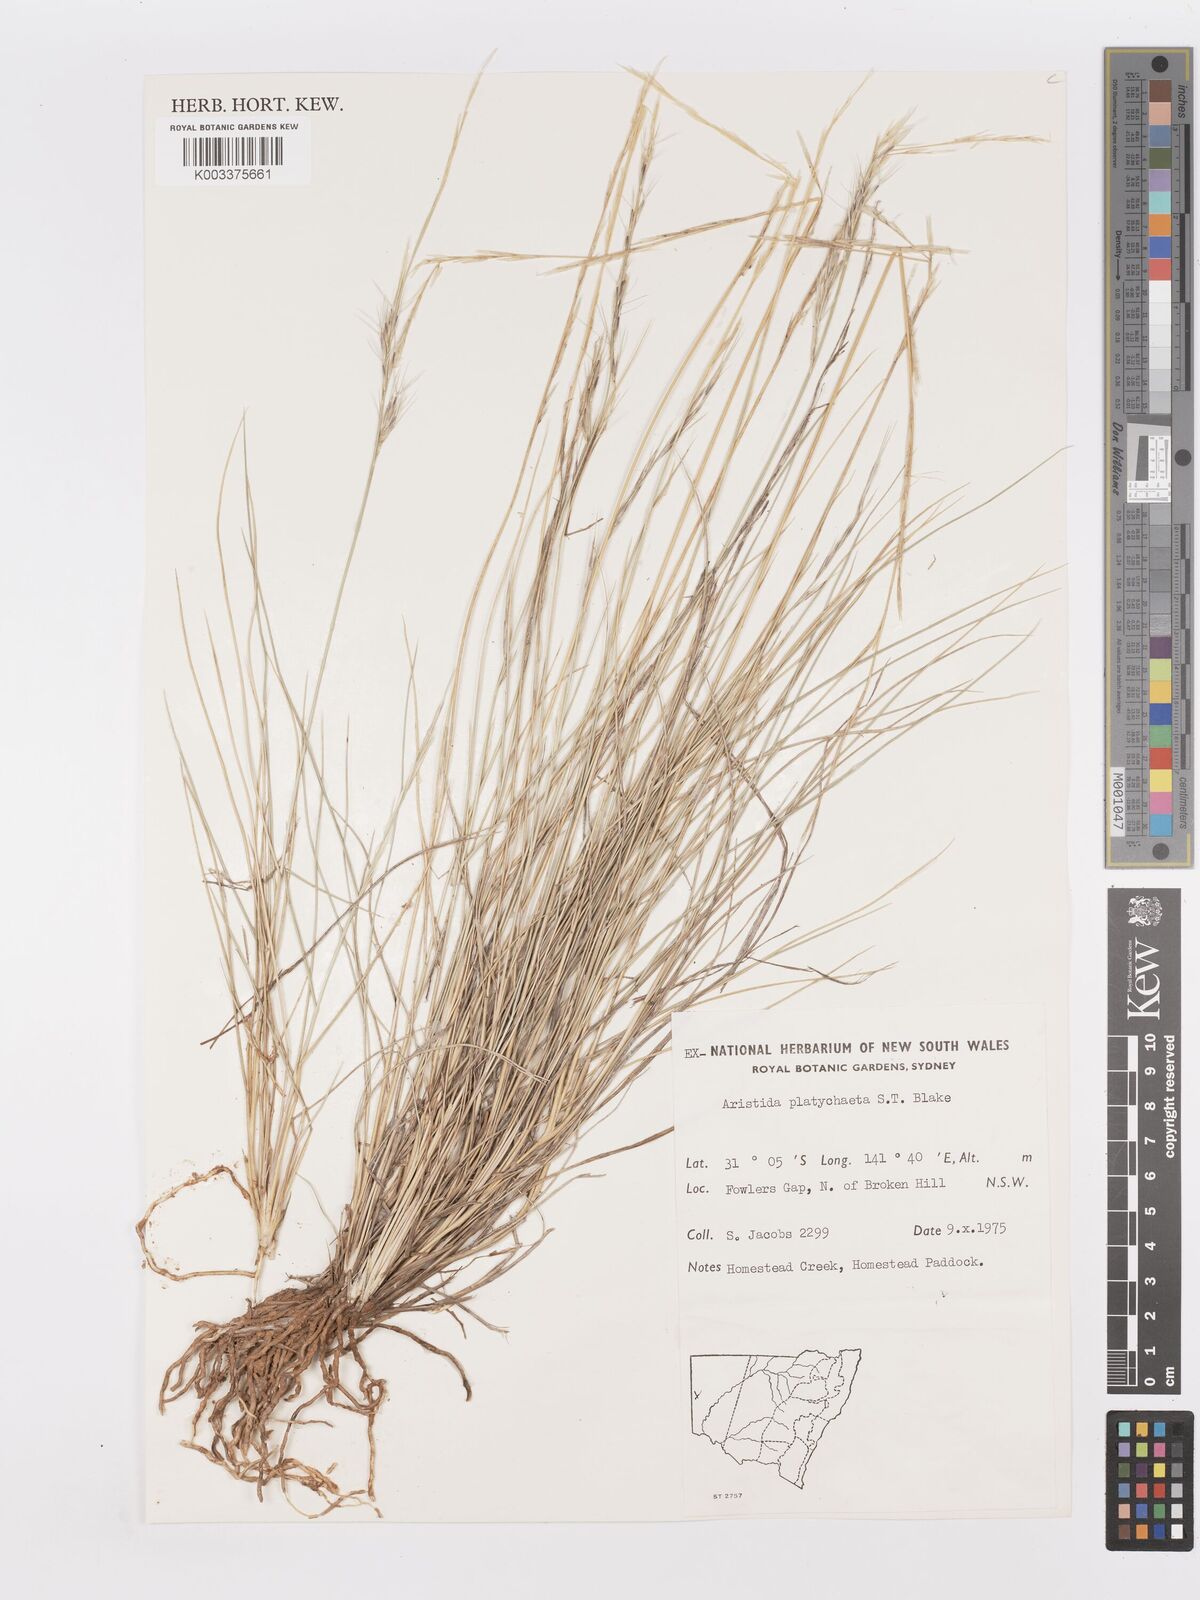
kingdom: Plantae
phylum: Tracheophyta
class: Liliopsida
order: Poales
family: Poaceae
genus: Aristida
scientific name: Aristida platychaeta
